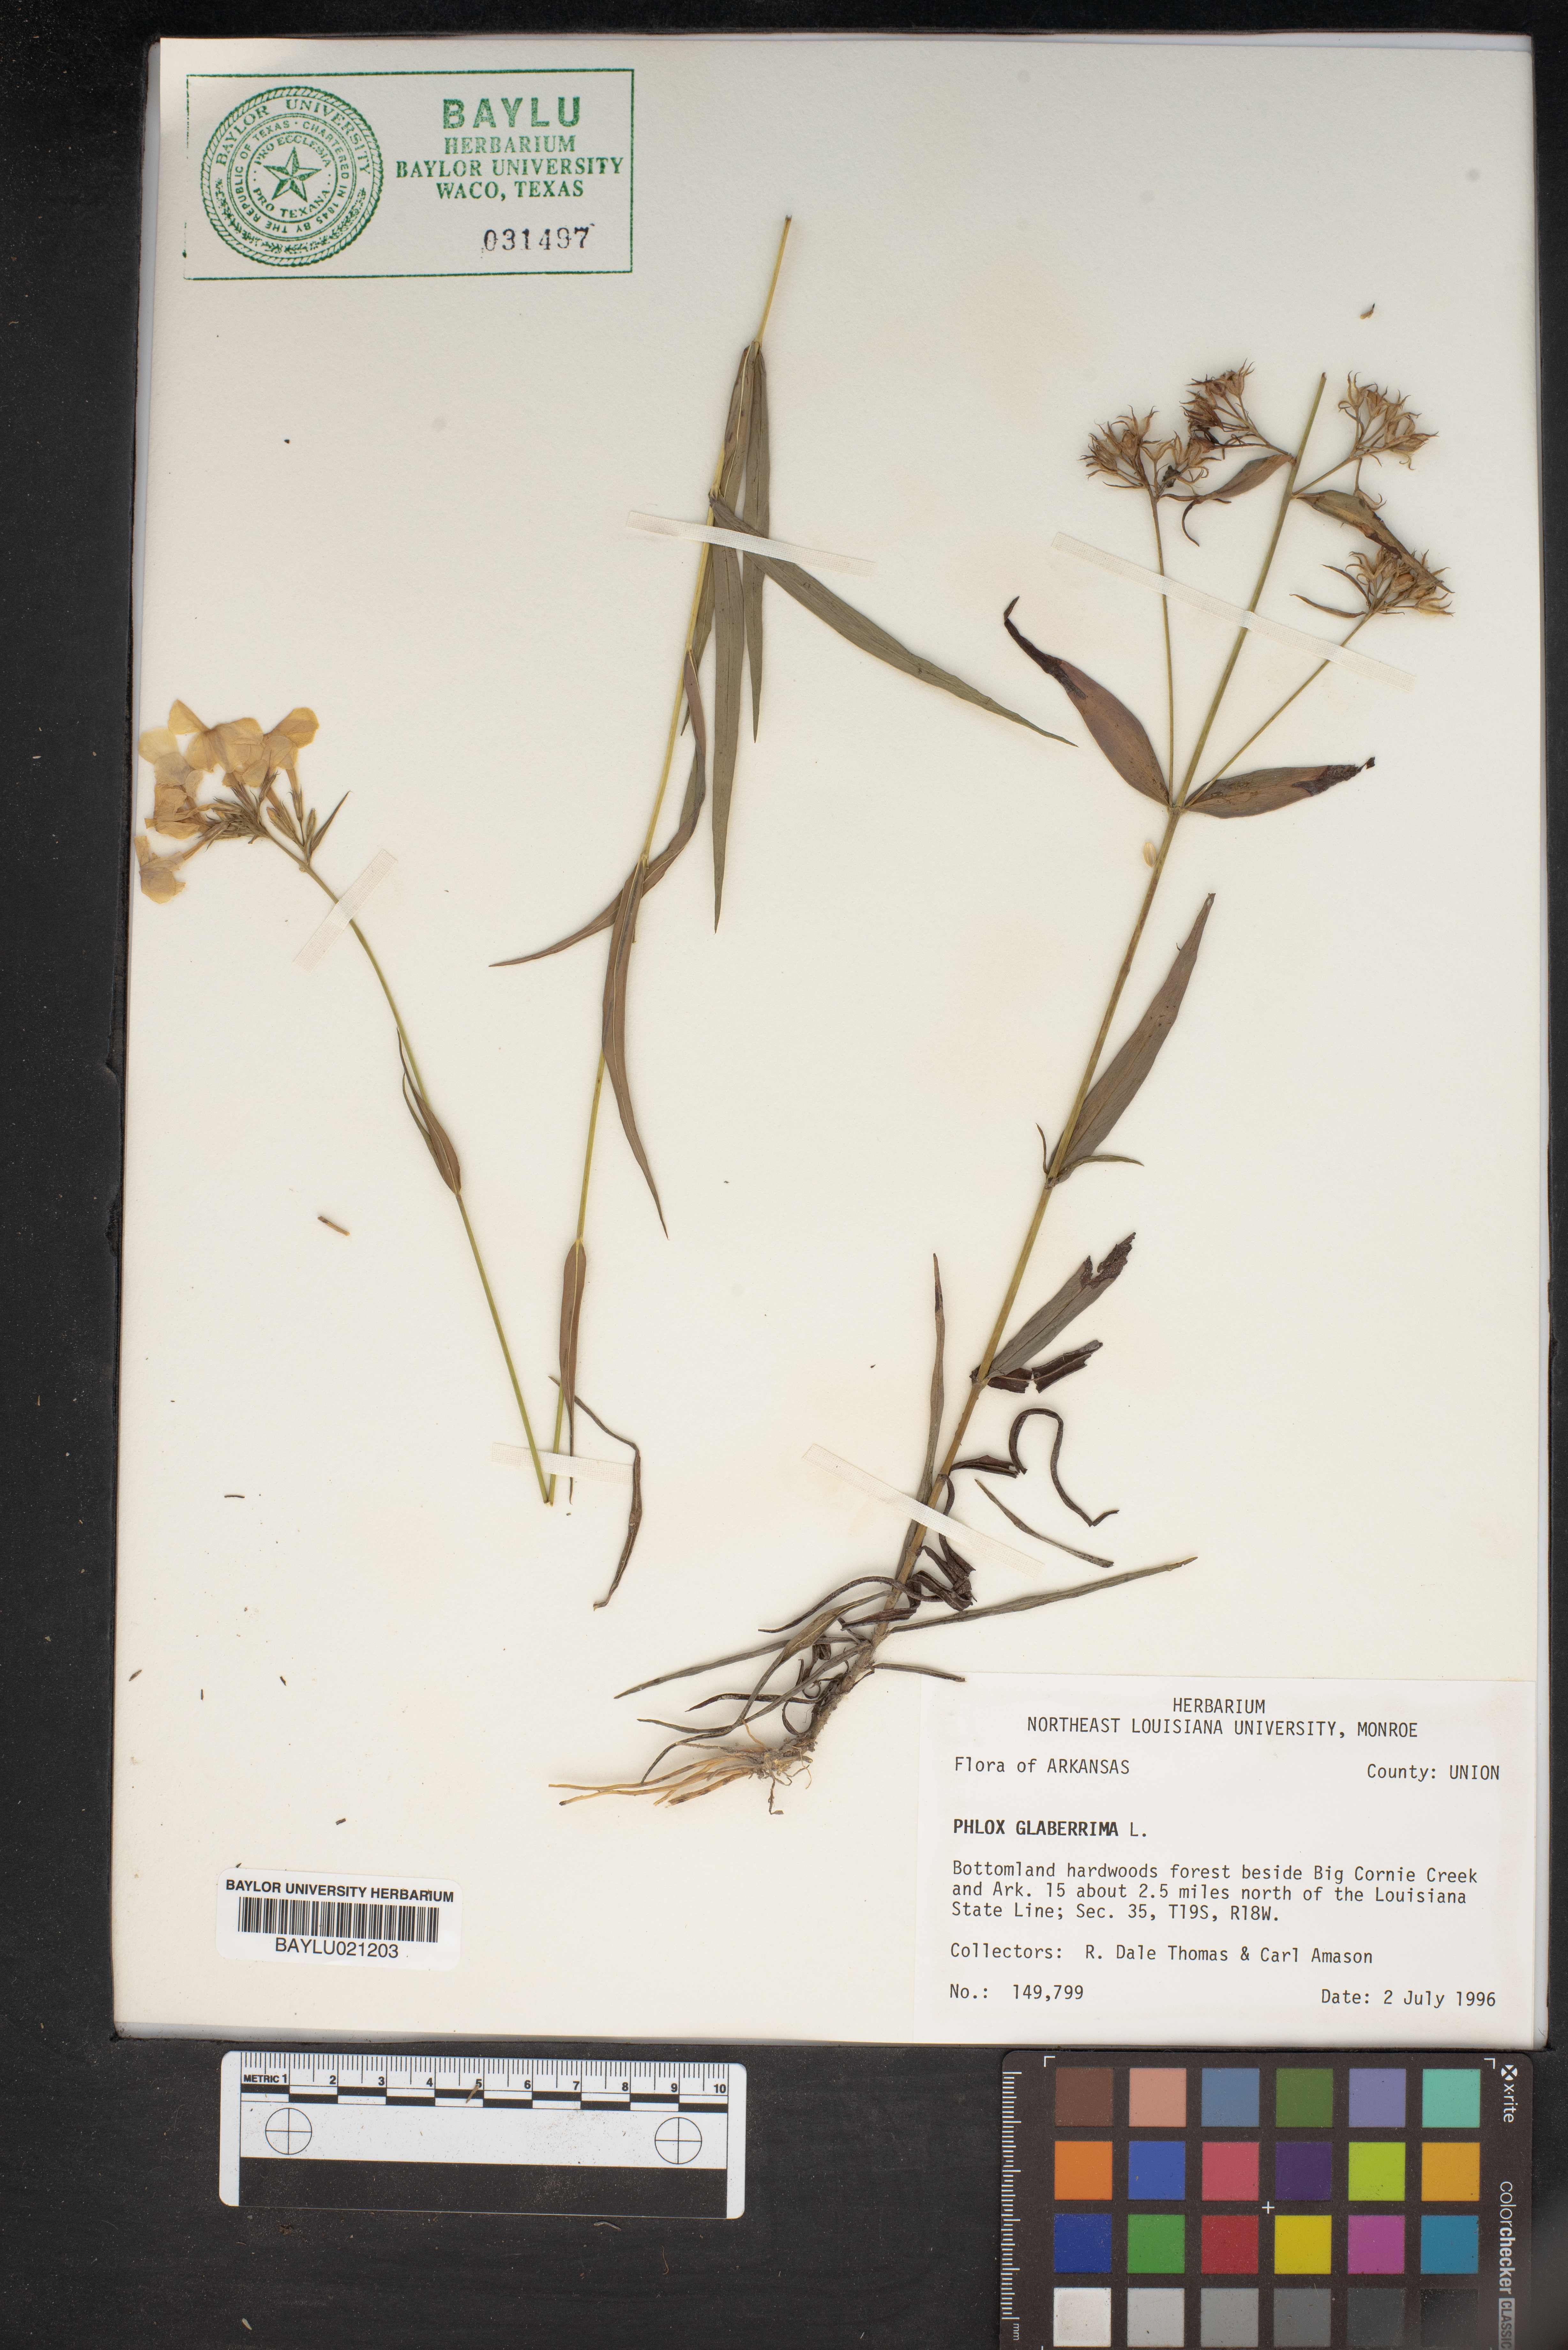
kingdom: Plantae
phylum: Tracheophyta
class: Magnoliopsida
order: Ericales
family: Polemoniaceae
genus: Phlox
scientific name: Phlox glaberrima
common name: Smooth phlox
